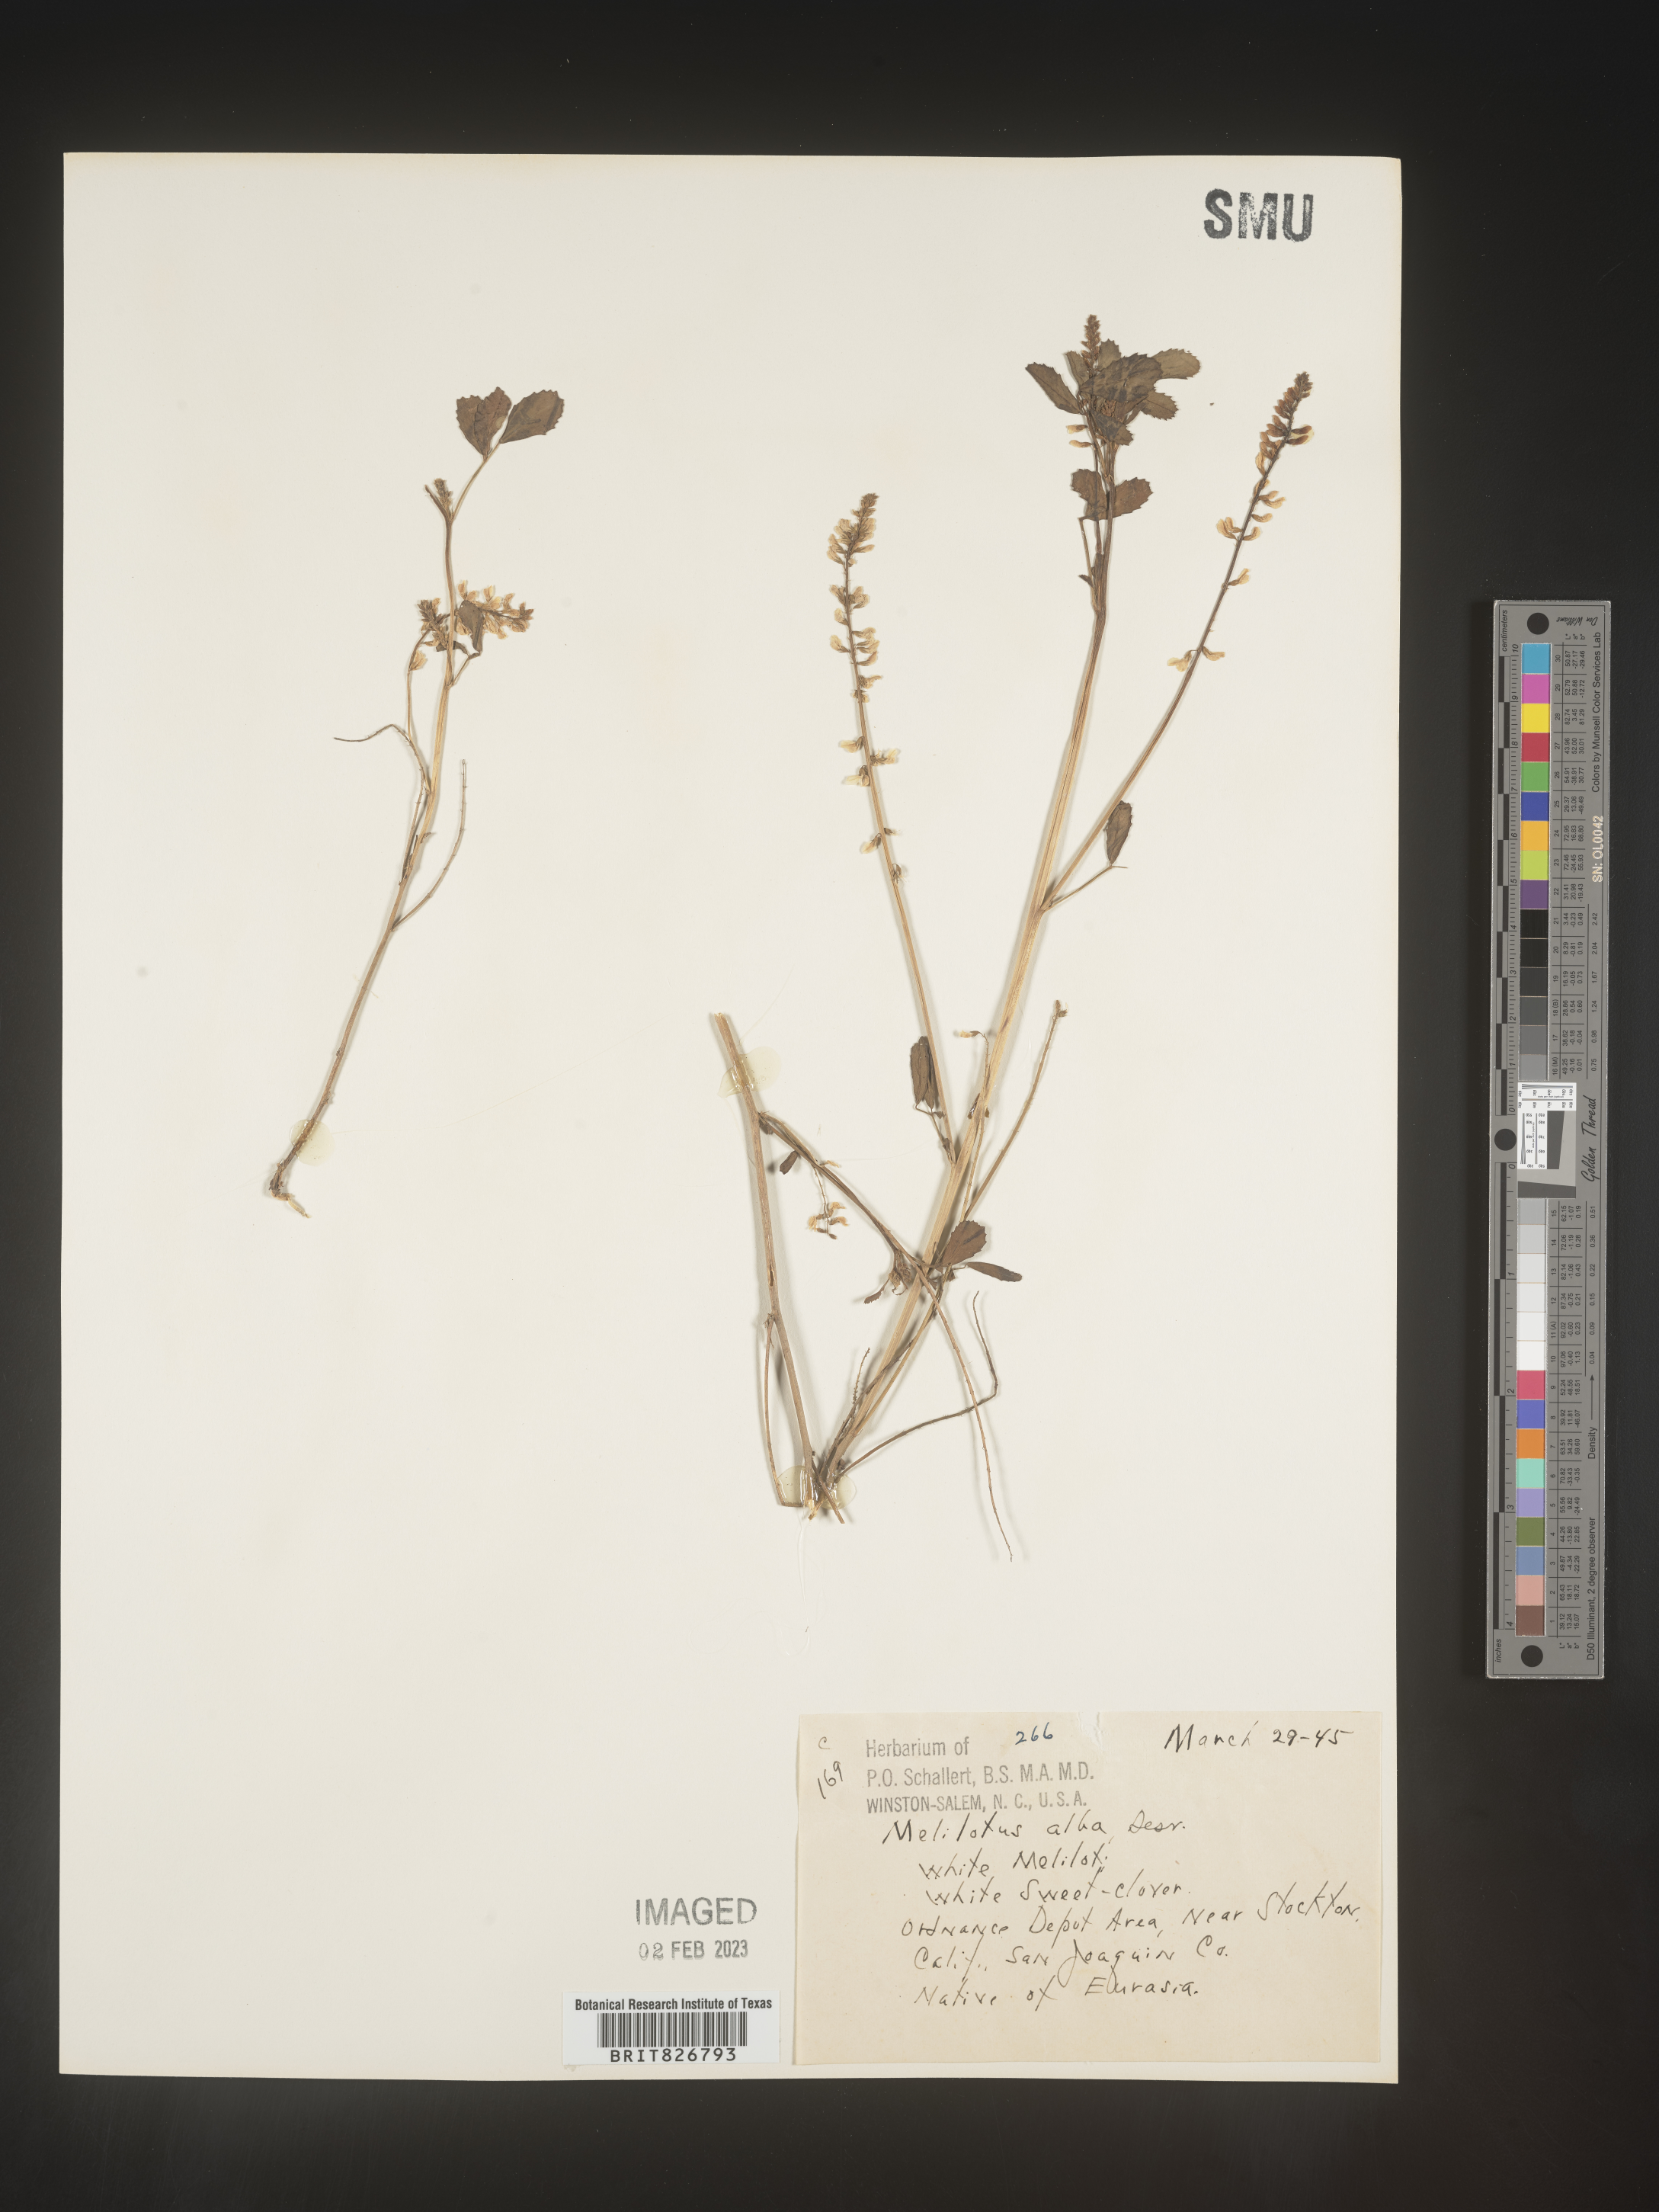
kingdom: Plantae
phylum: Tracheophyta
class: Magnoliopsida
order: Fabales
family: Fabaceae
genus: Melilotus
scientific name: Melilotus albus
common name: White melilot
